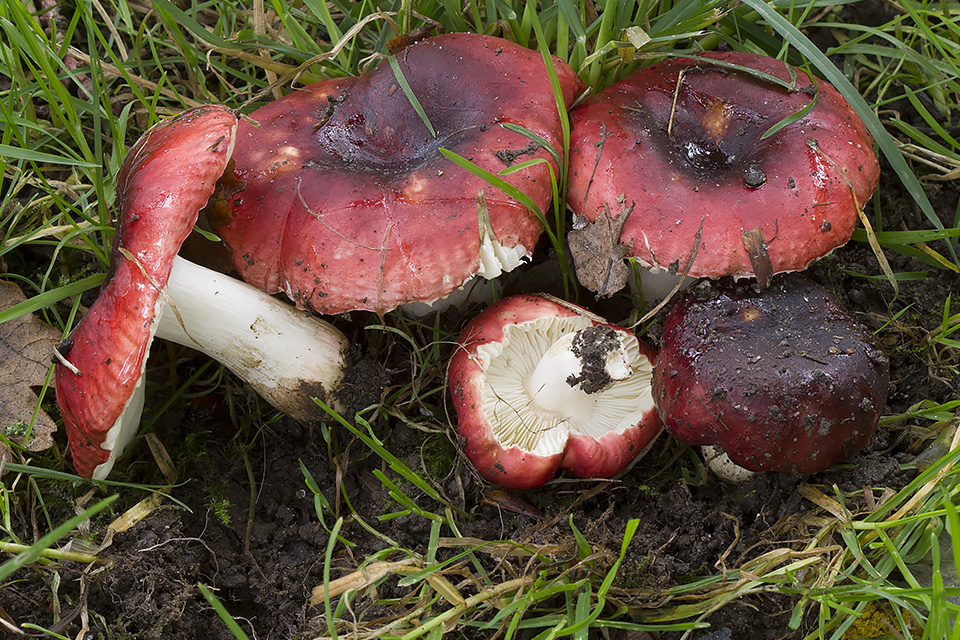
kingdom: Fungi
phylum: Basidiomycota
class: Agaricomycetes
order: Russulales
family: Russulaceae
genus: Russula
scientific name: Russula graveolens
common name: bugtet skørhat
